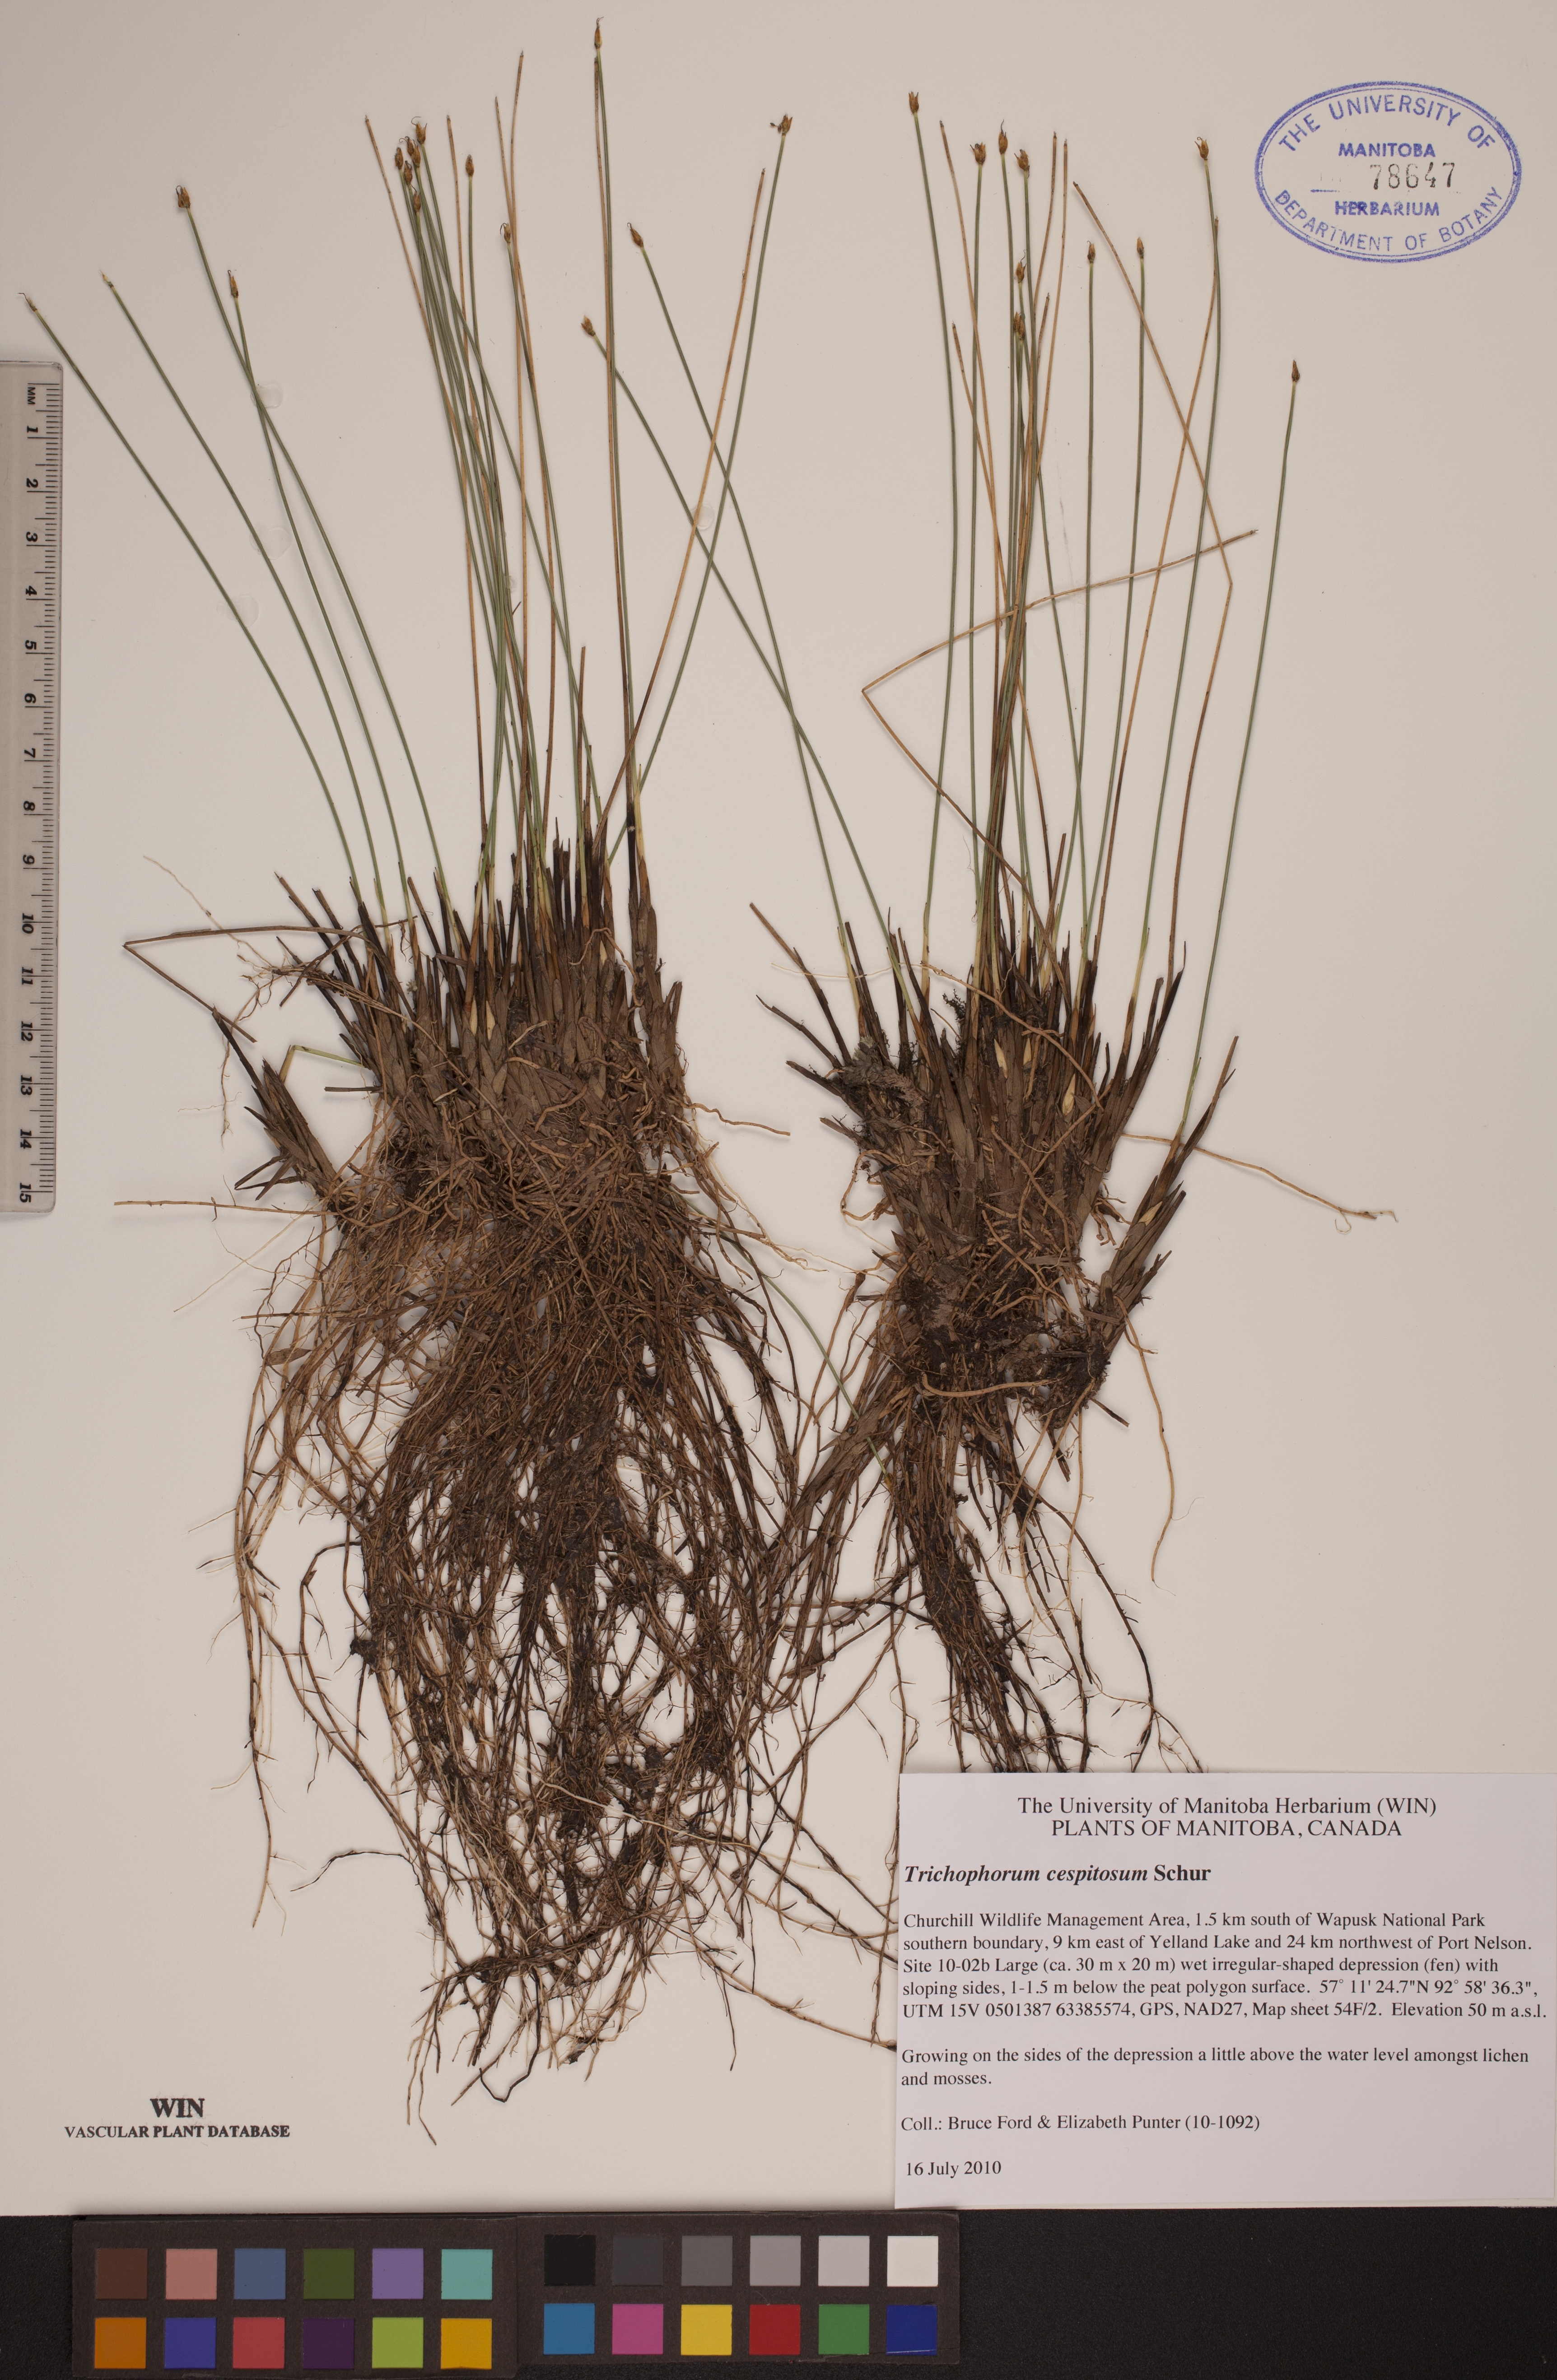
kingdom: Plantae
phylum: Tracheophyta
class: Liliopsida
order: Poales
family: Cyperaceae
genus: Trichophorum
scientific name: Trichophorum cespitosum
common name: Cespitose bulrush
